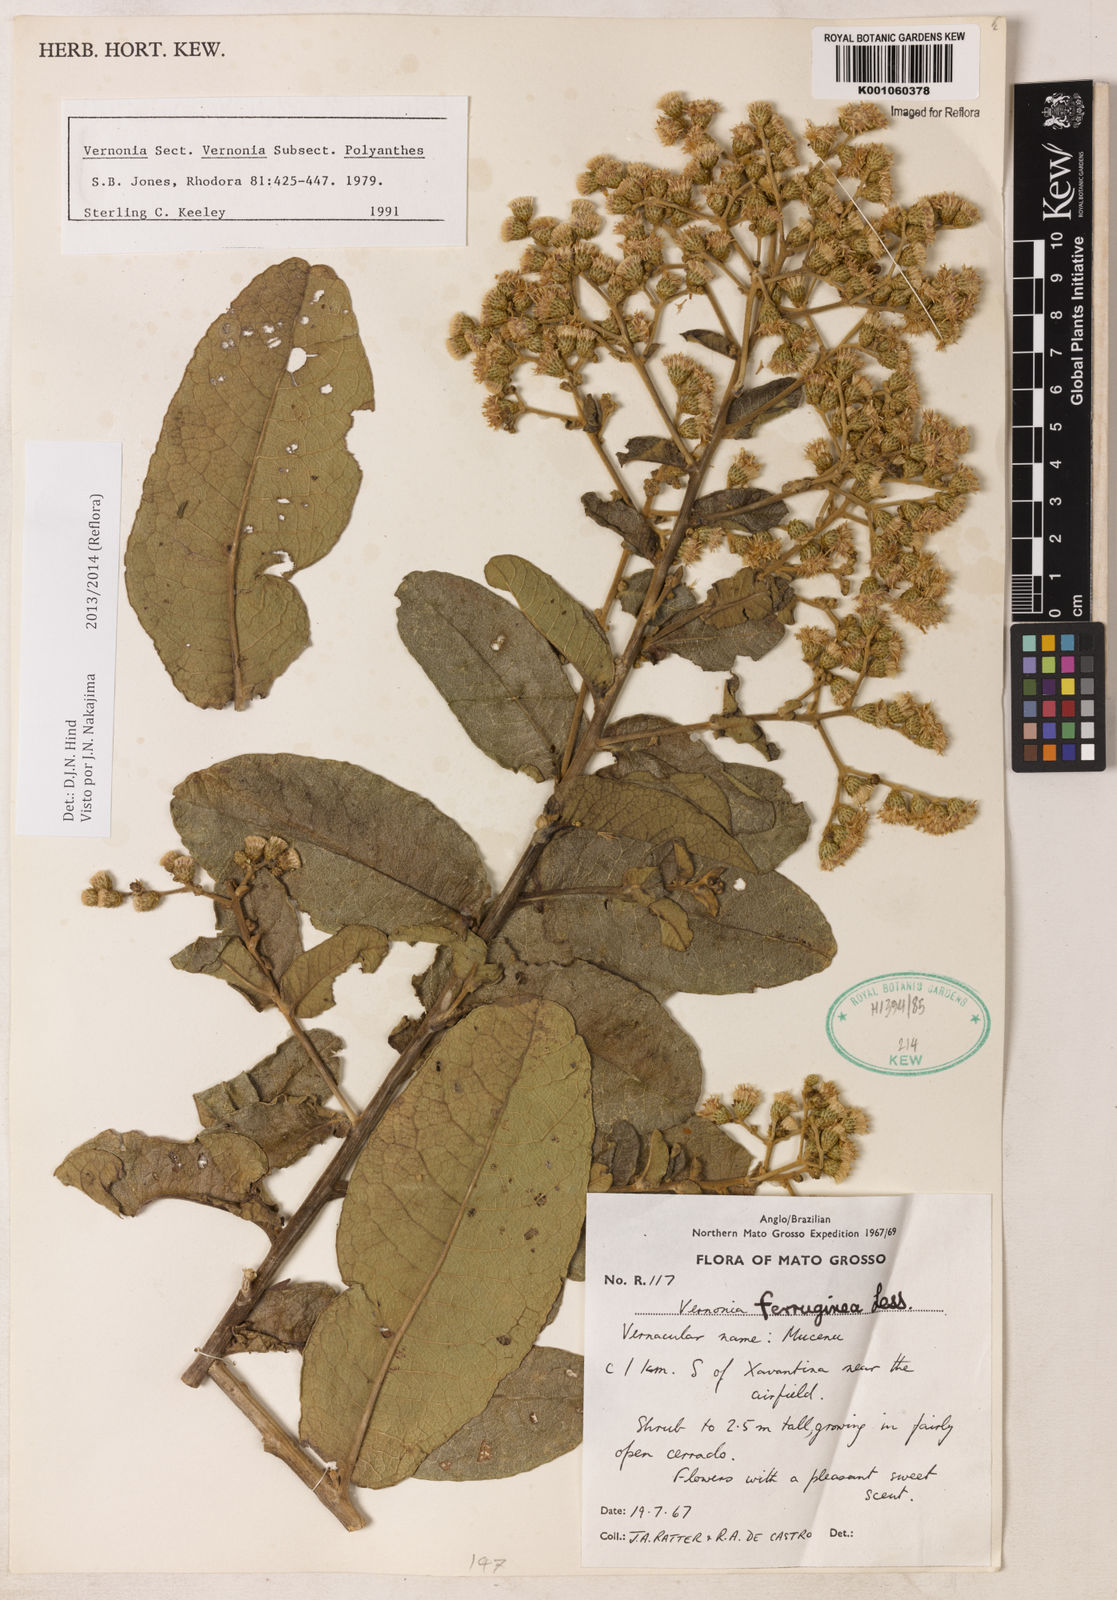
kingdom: Plantae
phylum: Tracheophyta
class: Magnoliopsida
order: Asterales
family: Asteraceae
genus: Vernonanthura
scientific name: Vernonanthura ferruginea
